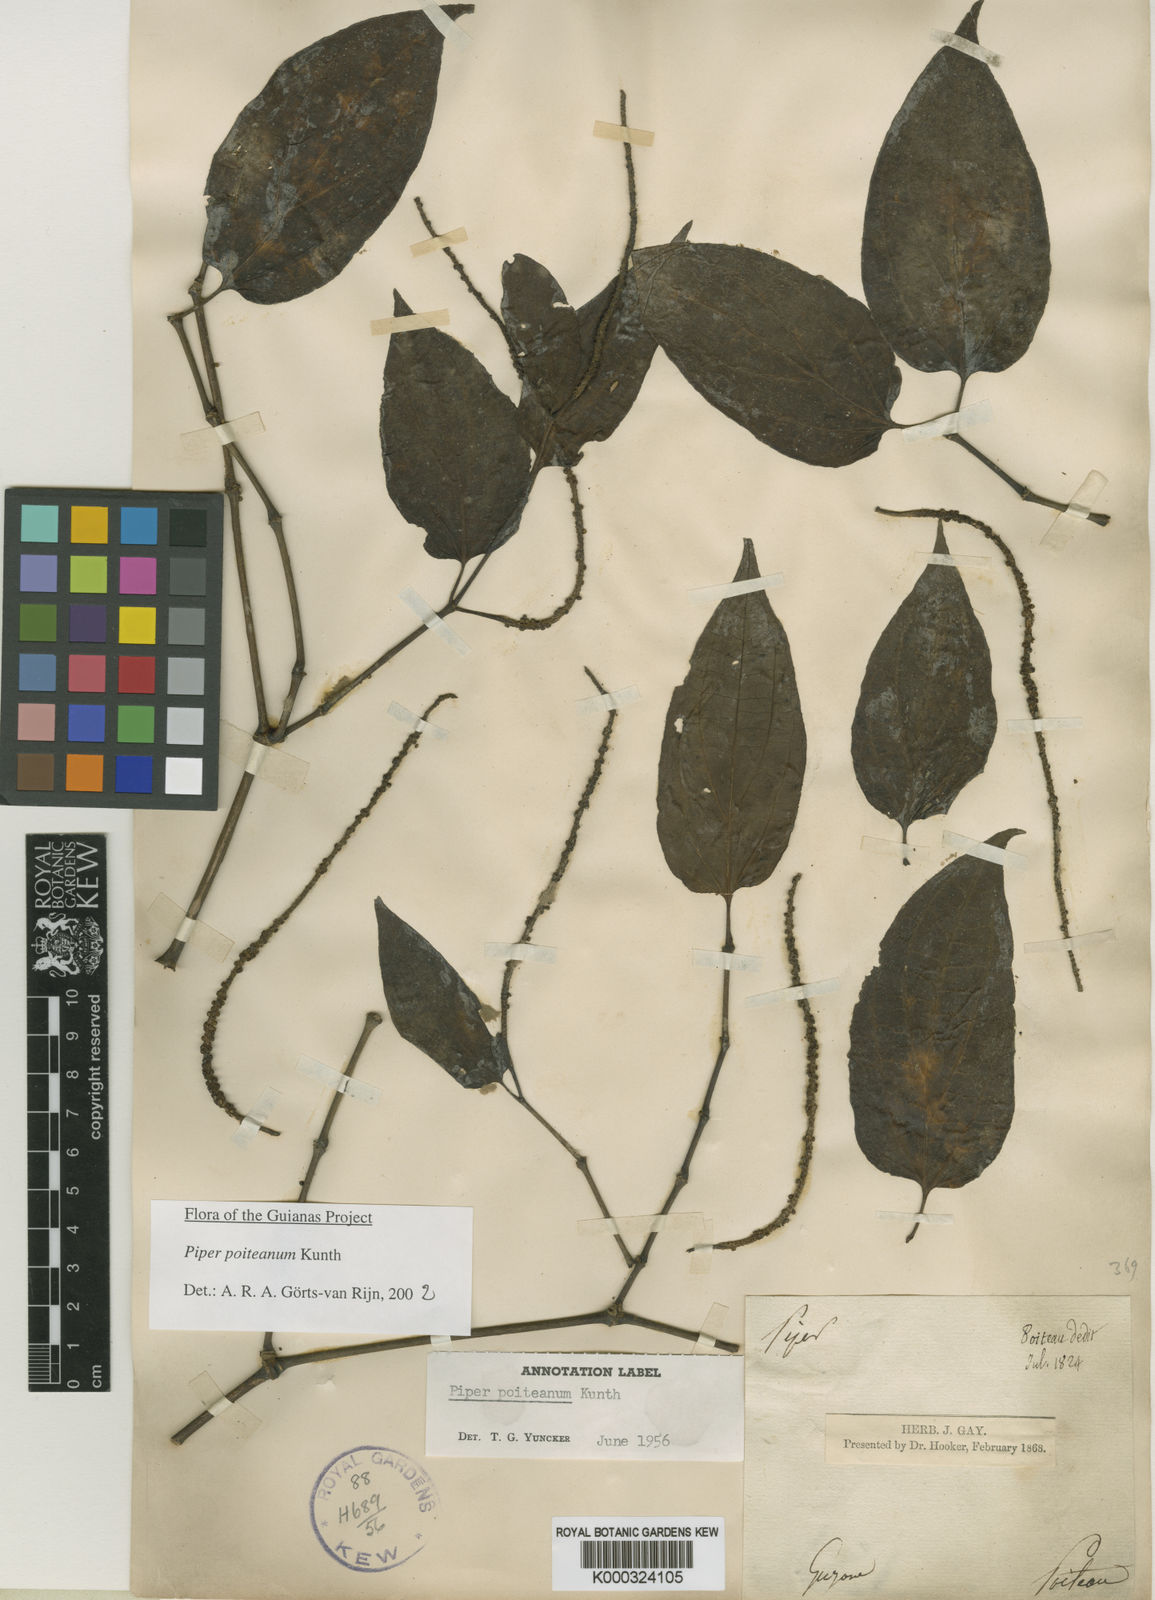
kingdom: Plantae
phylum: Tracheophyta
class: Magnoliopsida
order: Piperales
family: Piperaceae
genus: Piper
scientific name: Piper poiteanum
